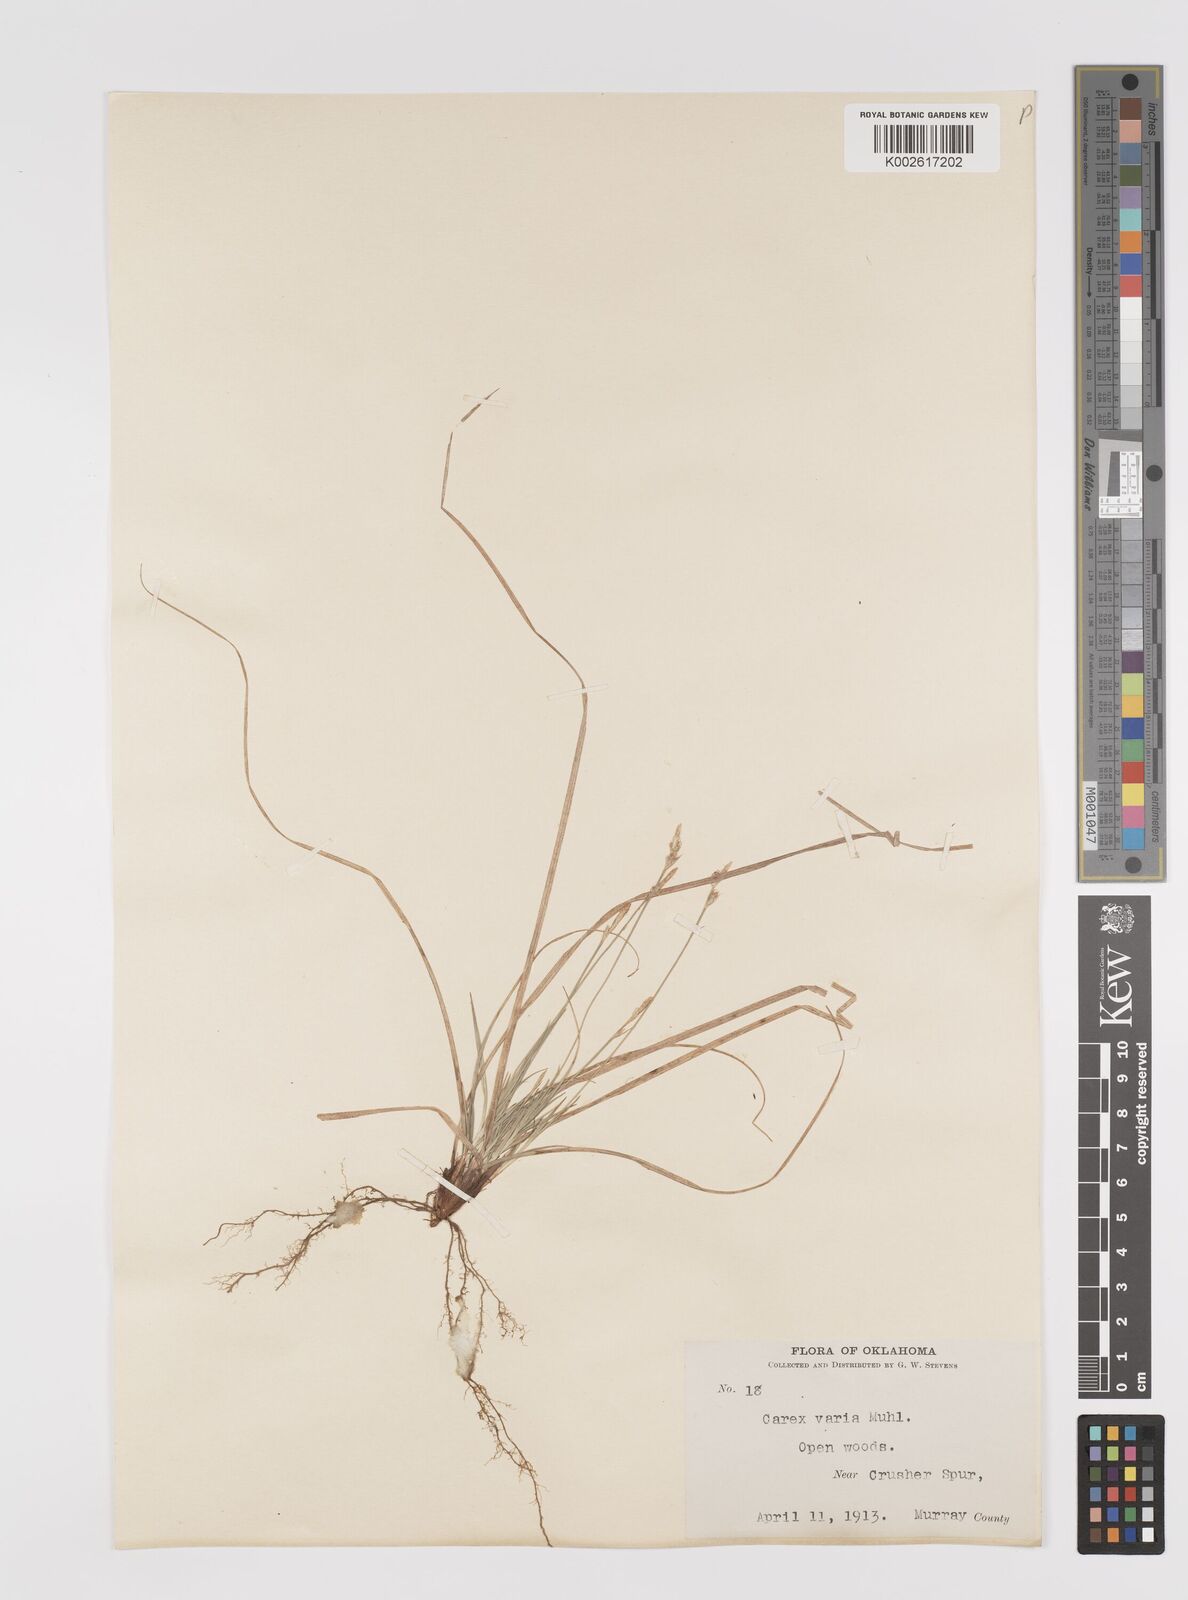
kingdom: Plantae
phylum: Tracheophyta
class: Liliopsida
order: Poales
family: Cyperaceae
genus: Carex
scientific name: Carex albicans
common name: Bellow-beaked sedge
